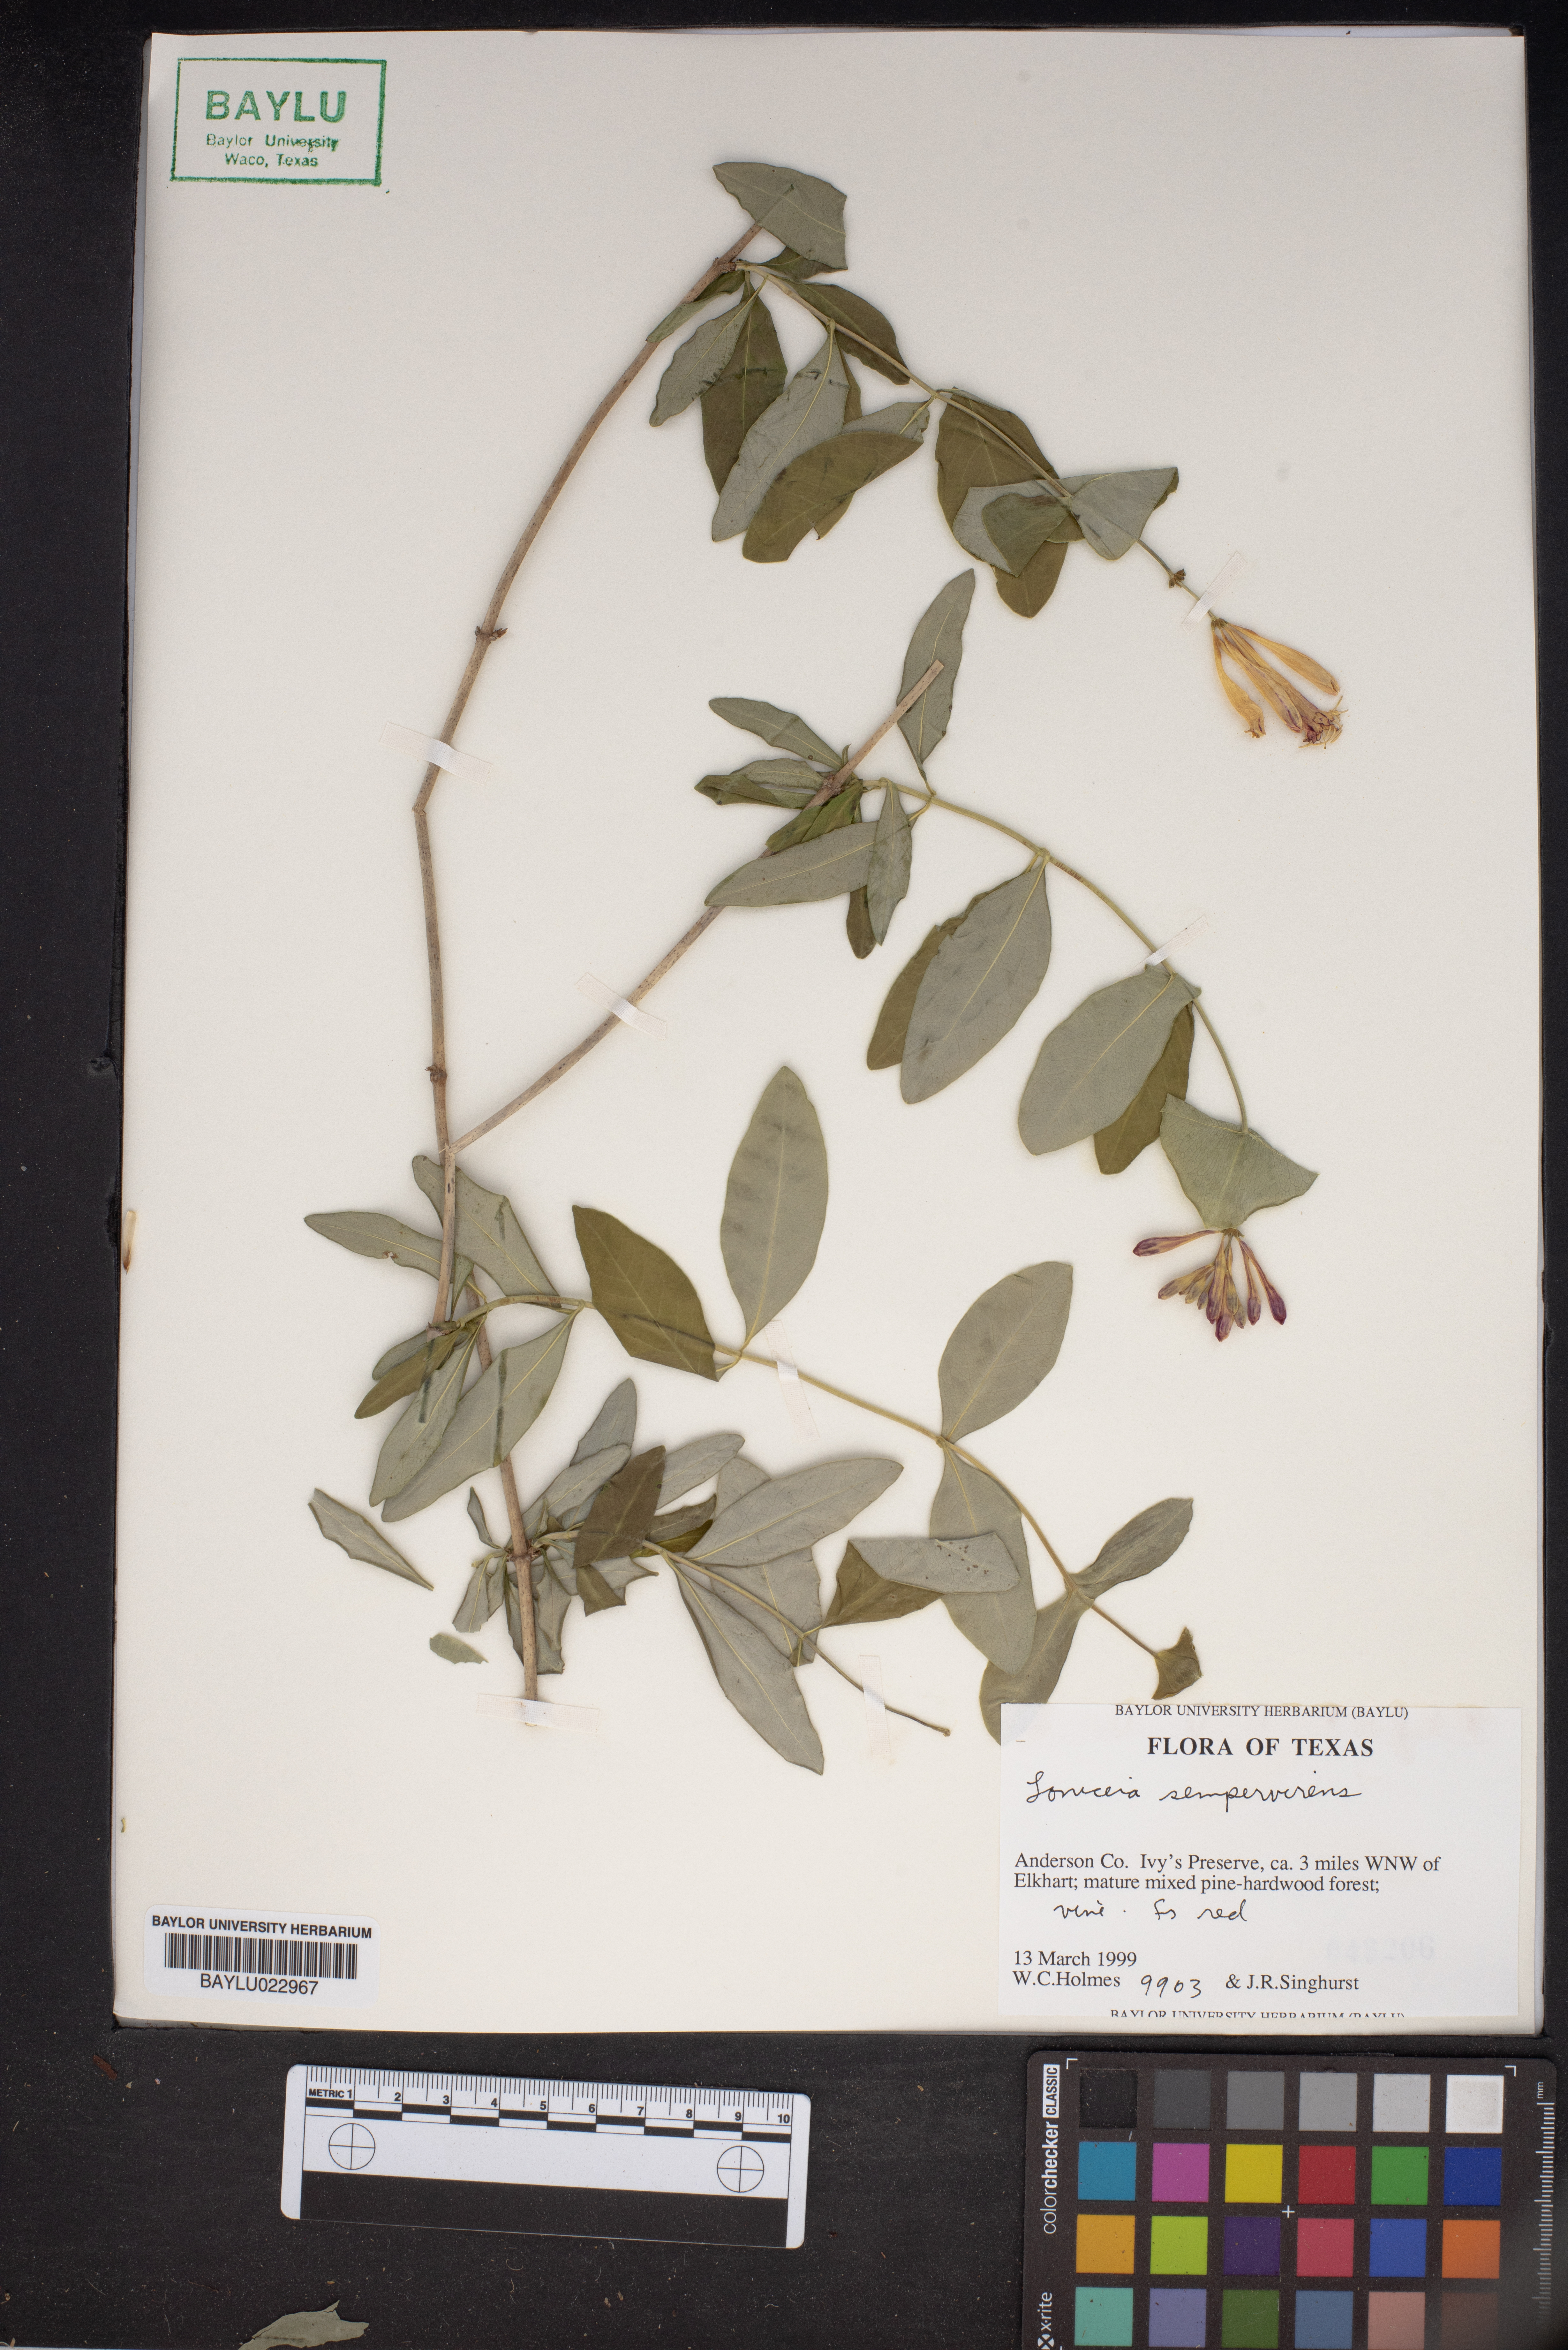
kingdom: Plantae
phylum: Tracheophyta
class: Magnoliopsida
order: Dipsacales
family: Caprifoliaceae
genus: Lonicera
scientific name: Lonicera sempervirens
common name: Coral honeysuckle
